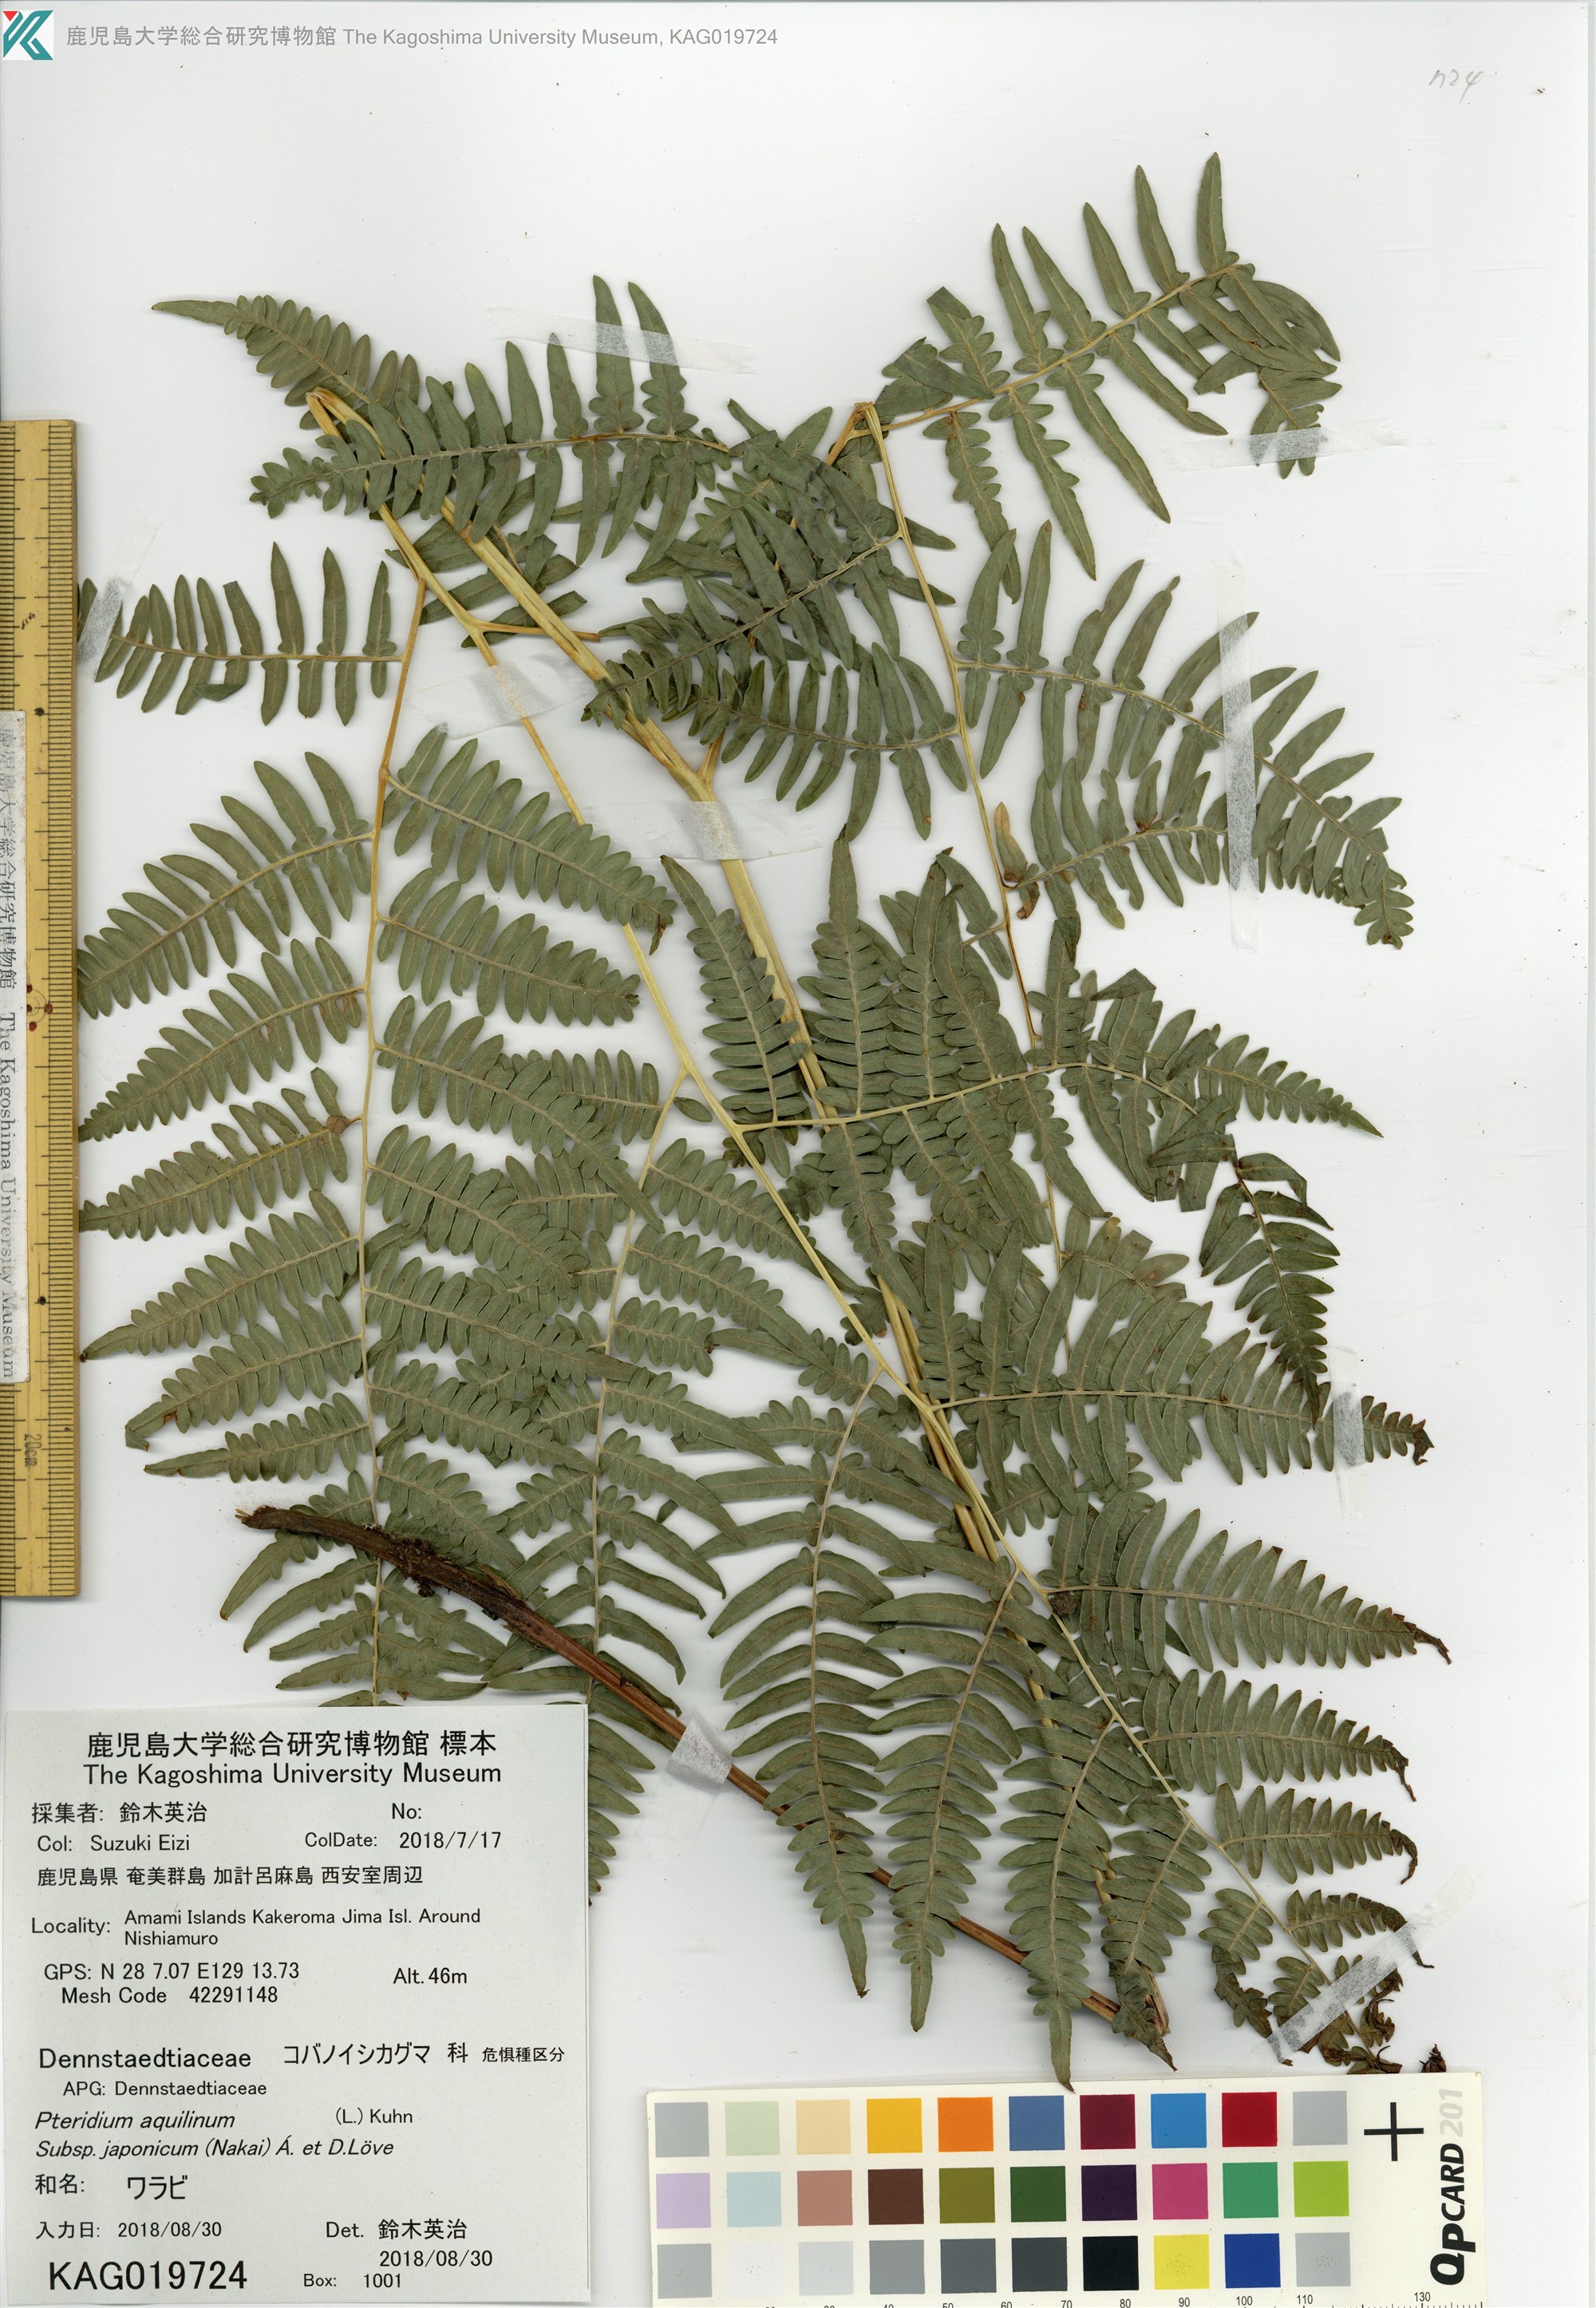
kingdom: Plantae
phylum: Tracheophyta
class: Polypodiopsida
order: Polypodiales
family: Dennstaedtiaceae
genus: Pteridium
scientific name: Pteridium aquilinum
